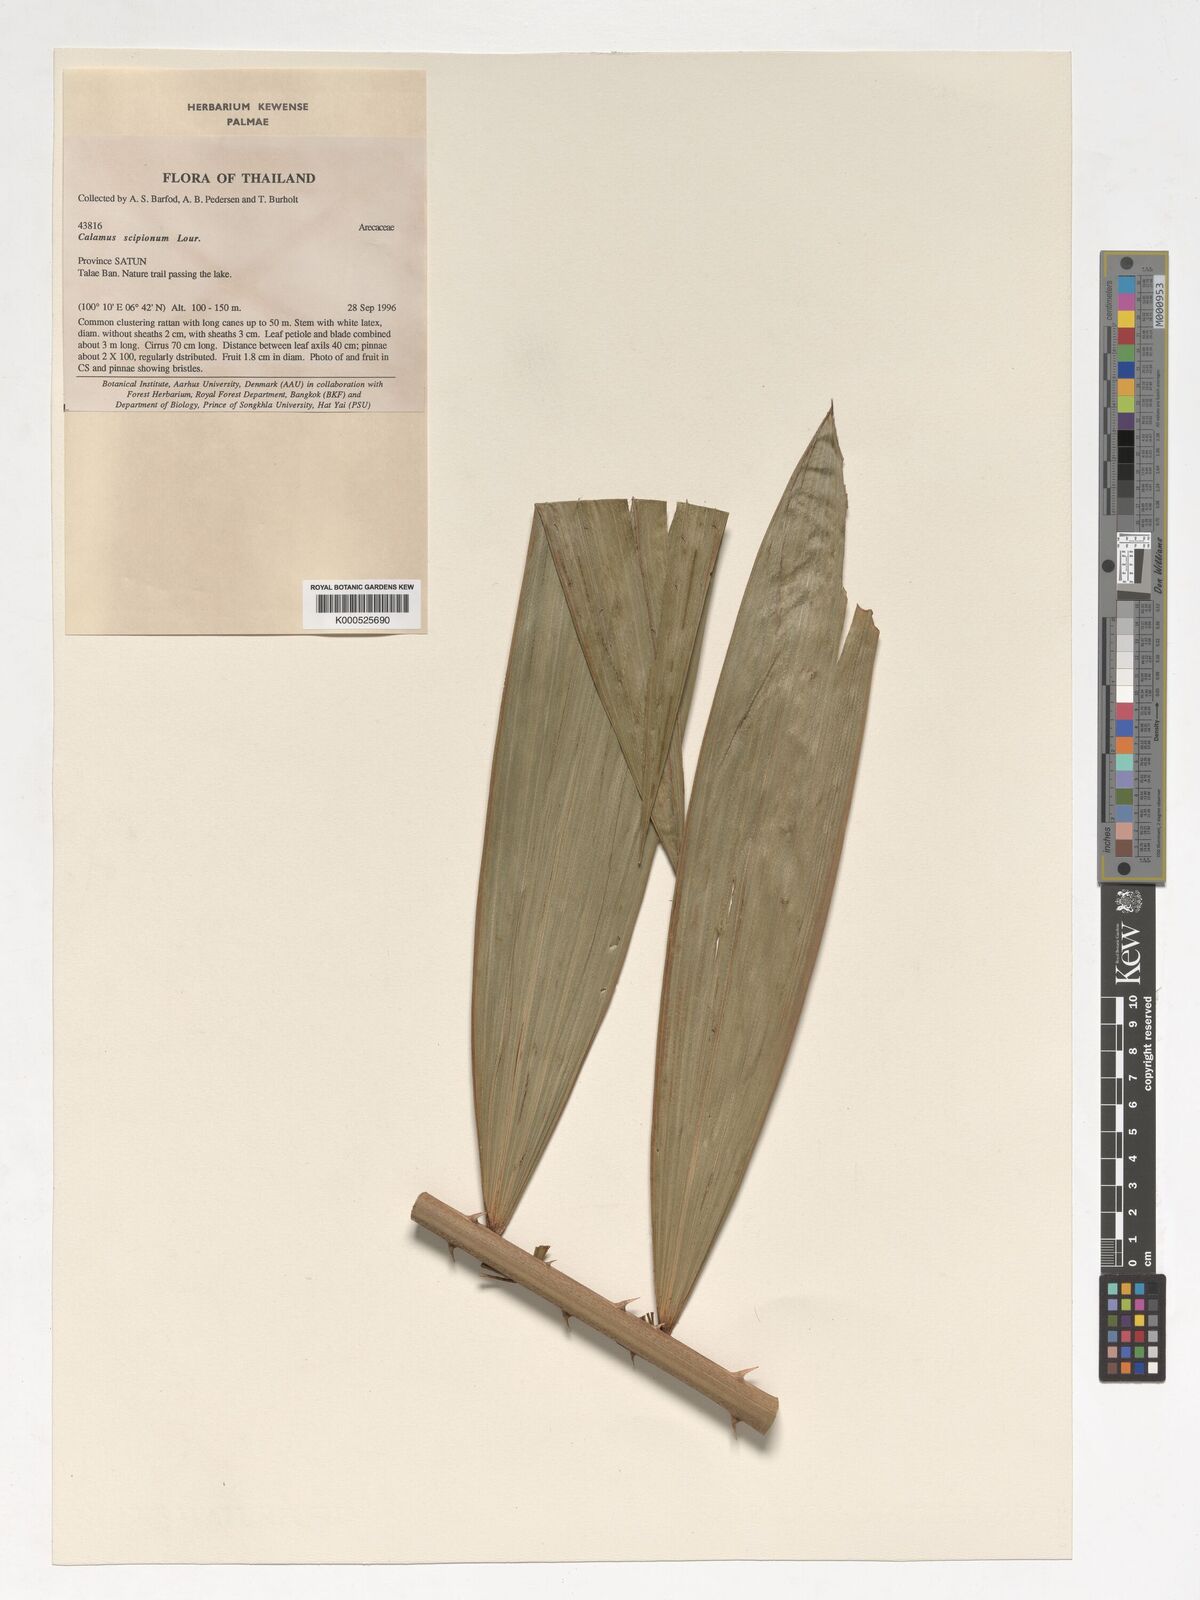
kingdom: Plantae
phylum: Tracheophyta
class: Liliopsida
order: Arecales
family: Arecaceae
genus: Calamus
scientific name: Calamus scipionum
